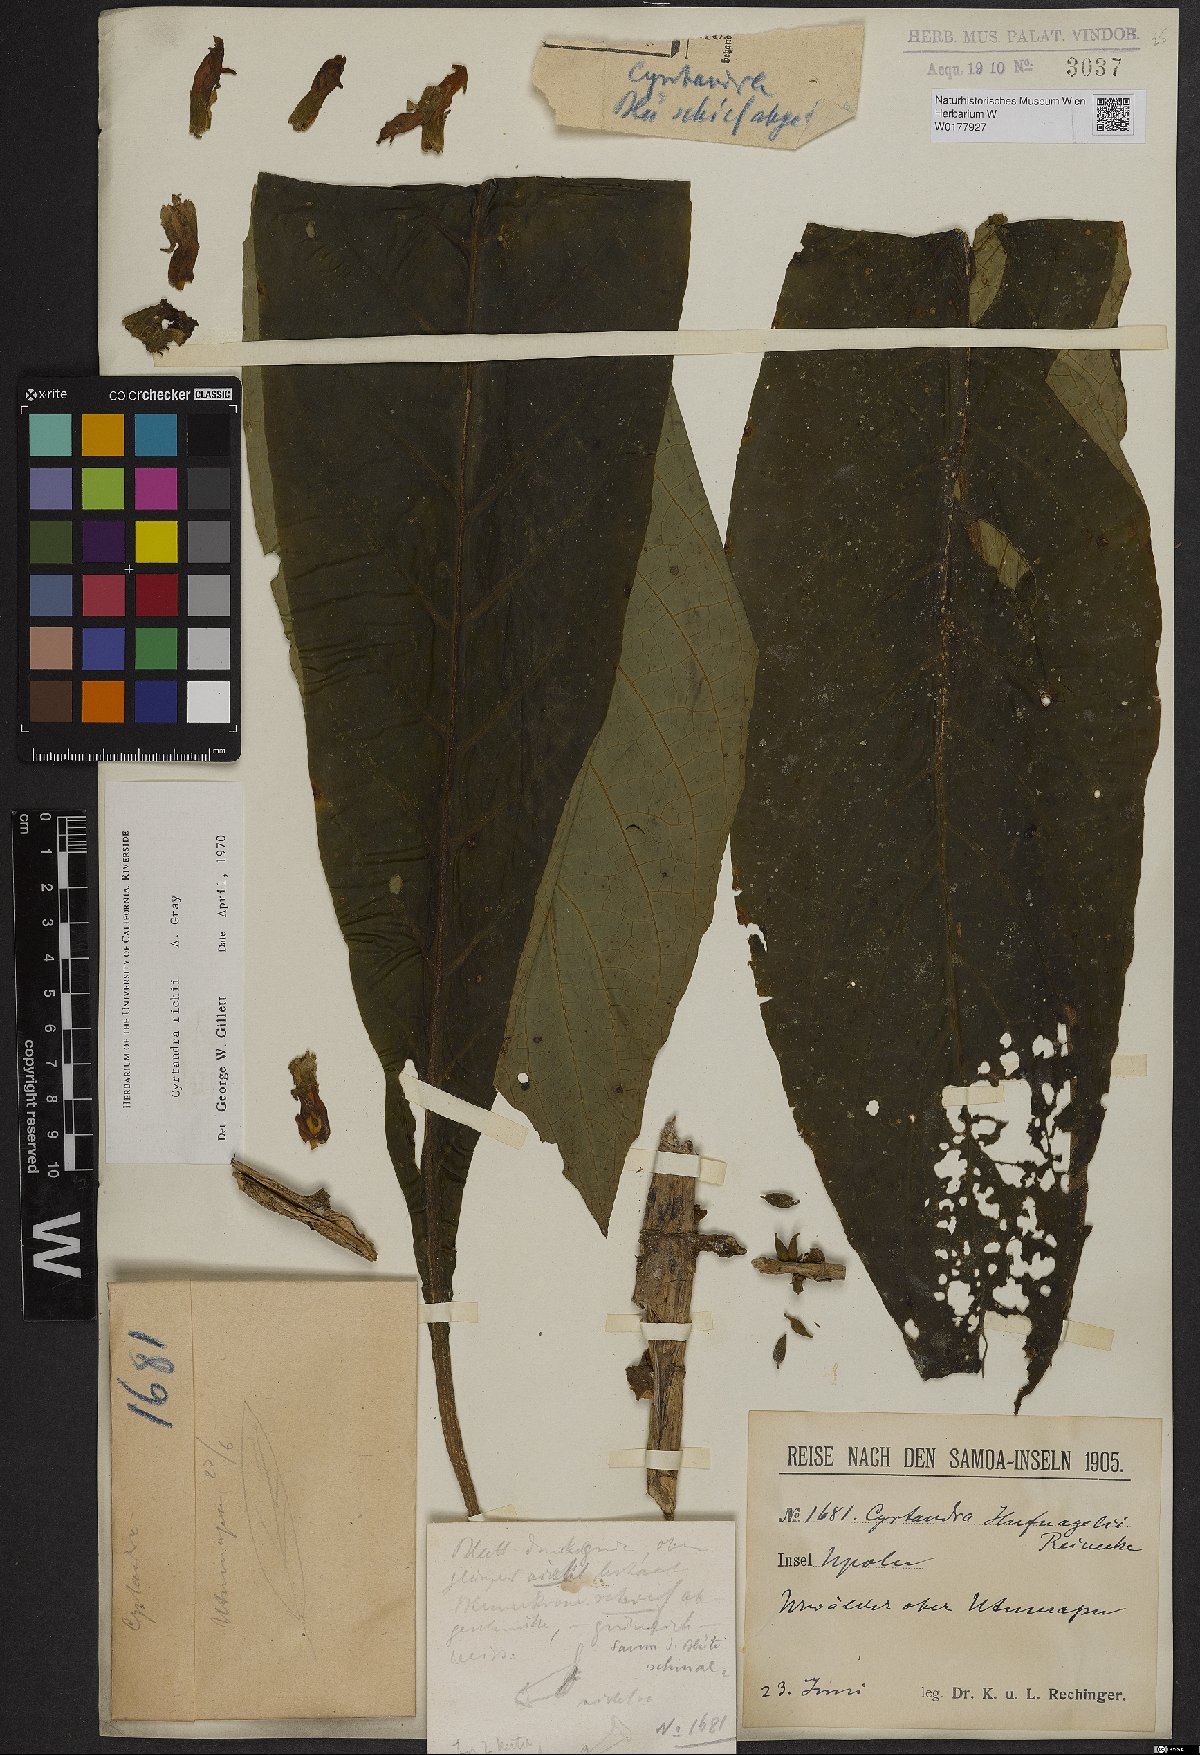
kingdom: Plantae
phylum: Tracheophyta
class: Magnoliopsida
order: Lamiales
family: Gesneriaceae
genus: Cyrtandra
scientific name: Cyrtandra richii
